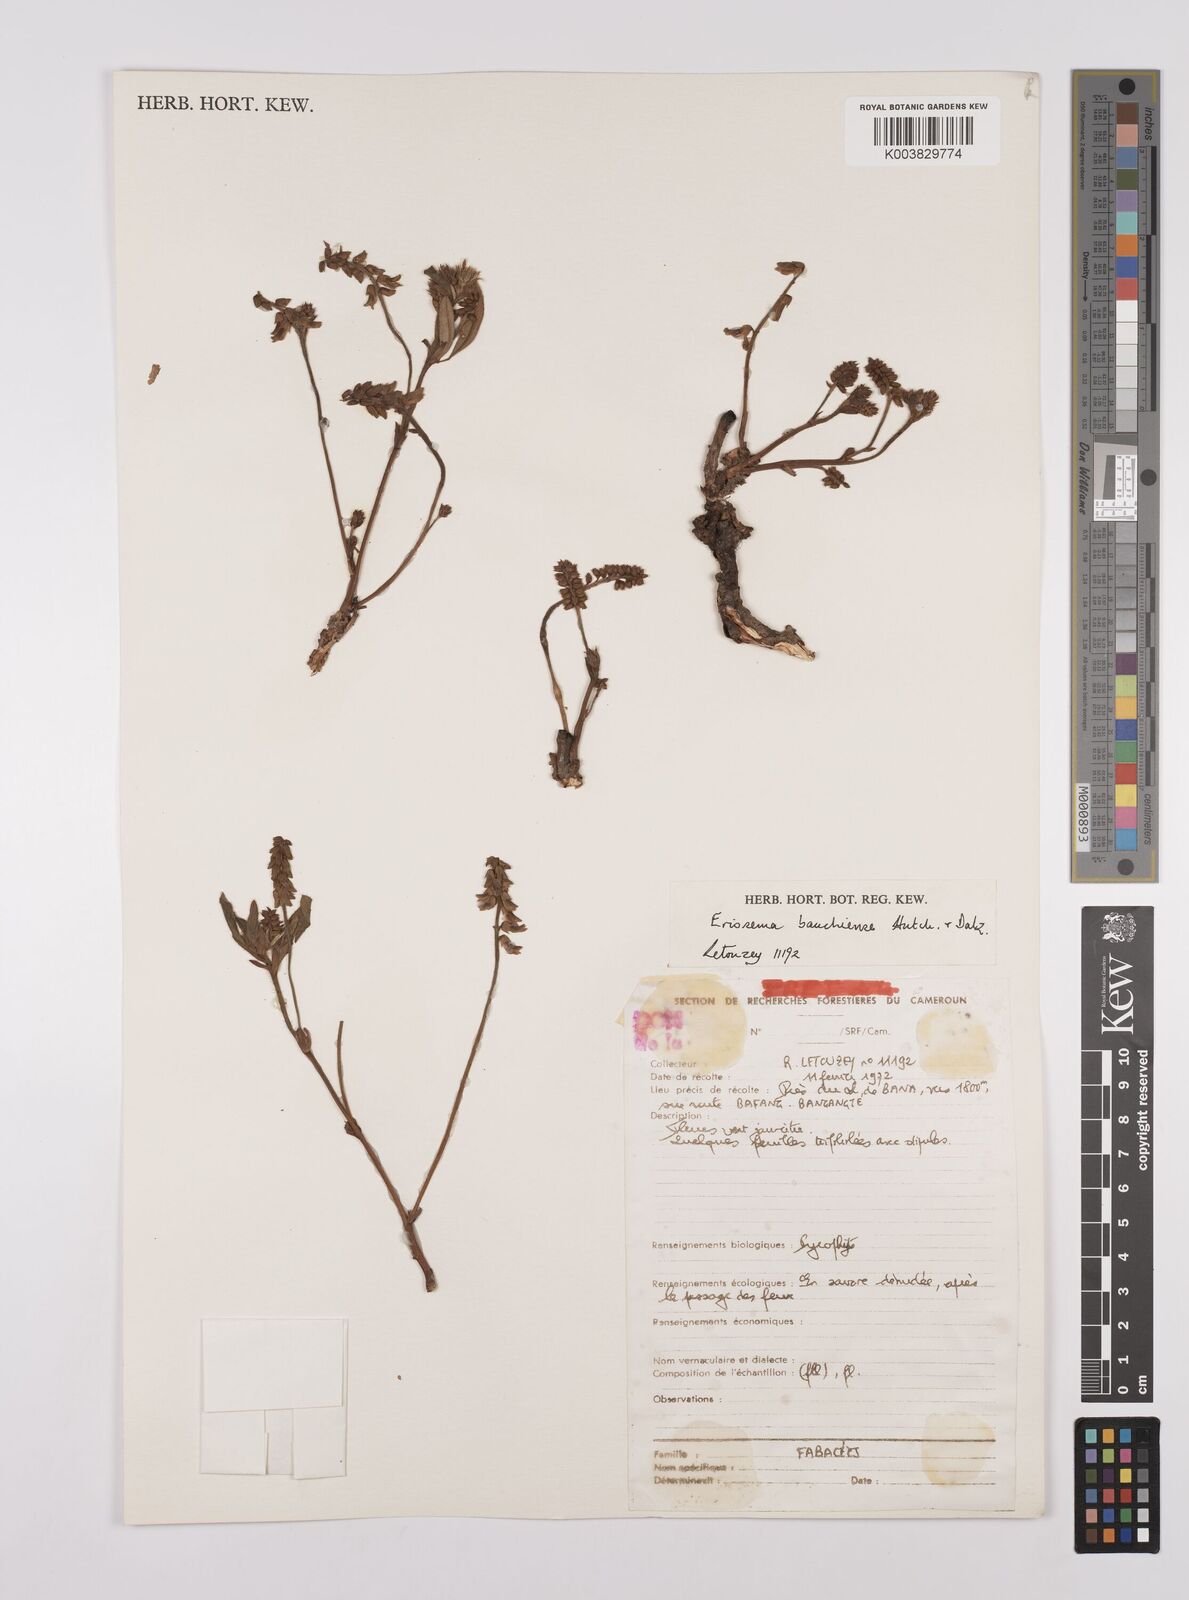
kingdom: Plantae
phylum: Tracheophyta
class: Magnoliopsida
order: Fabales
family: Fabaceae
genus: Eriosema
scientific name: Eriosema bauchiense
